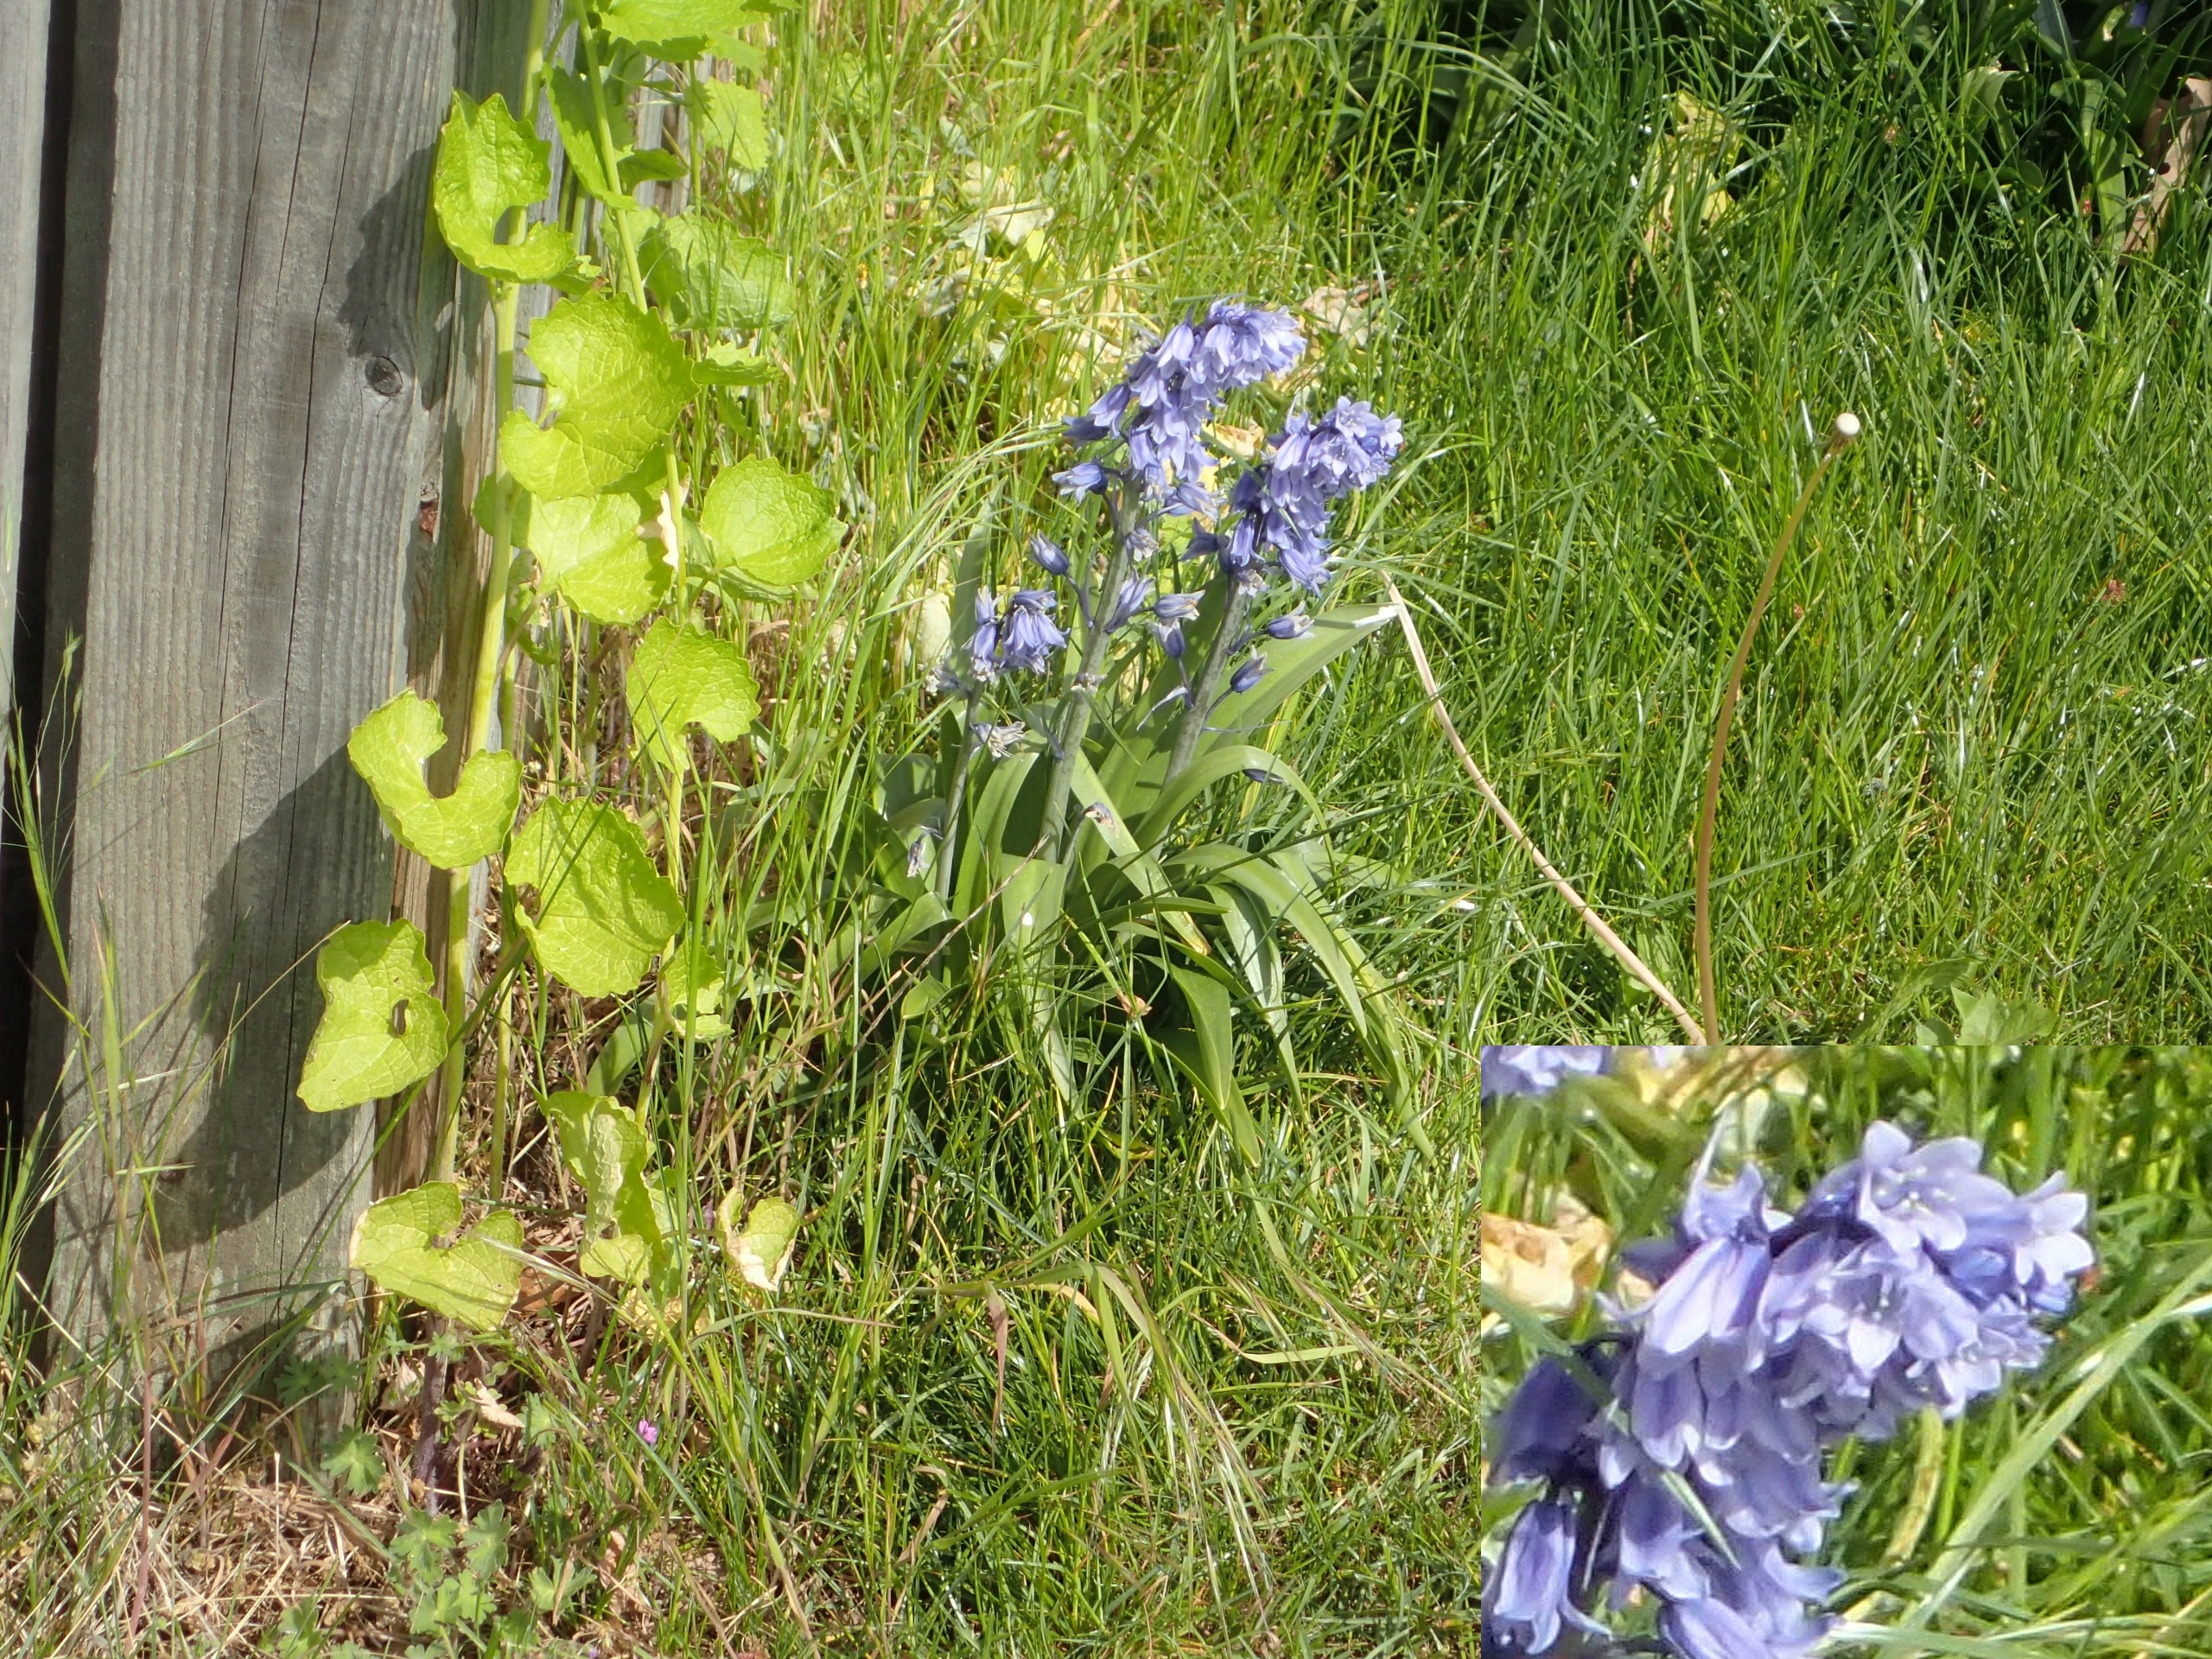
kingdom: Plantae
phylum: Tracheophyta
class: Liliopsida
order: Asparagales
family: Asparagaceae
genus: Hyacinthoides
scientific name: Hyacinthoides massartiana
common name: Hybrid-klokkeskilla
